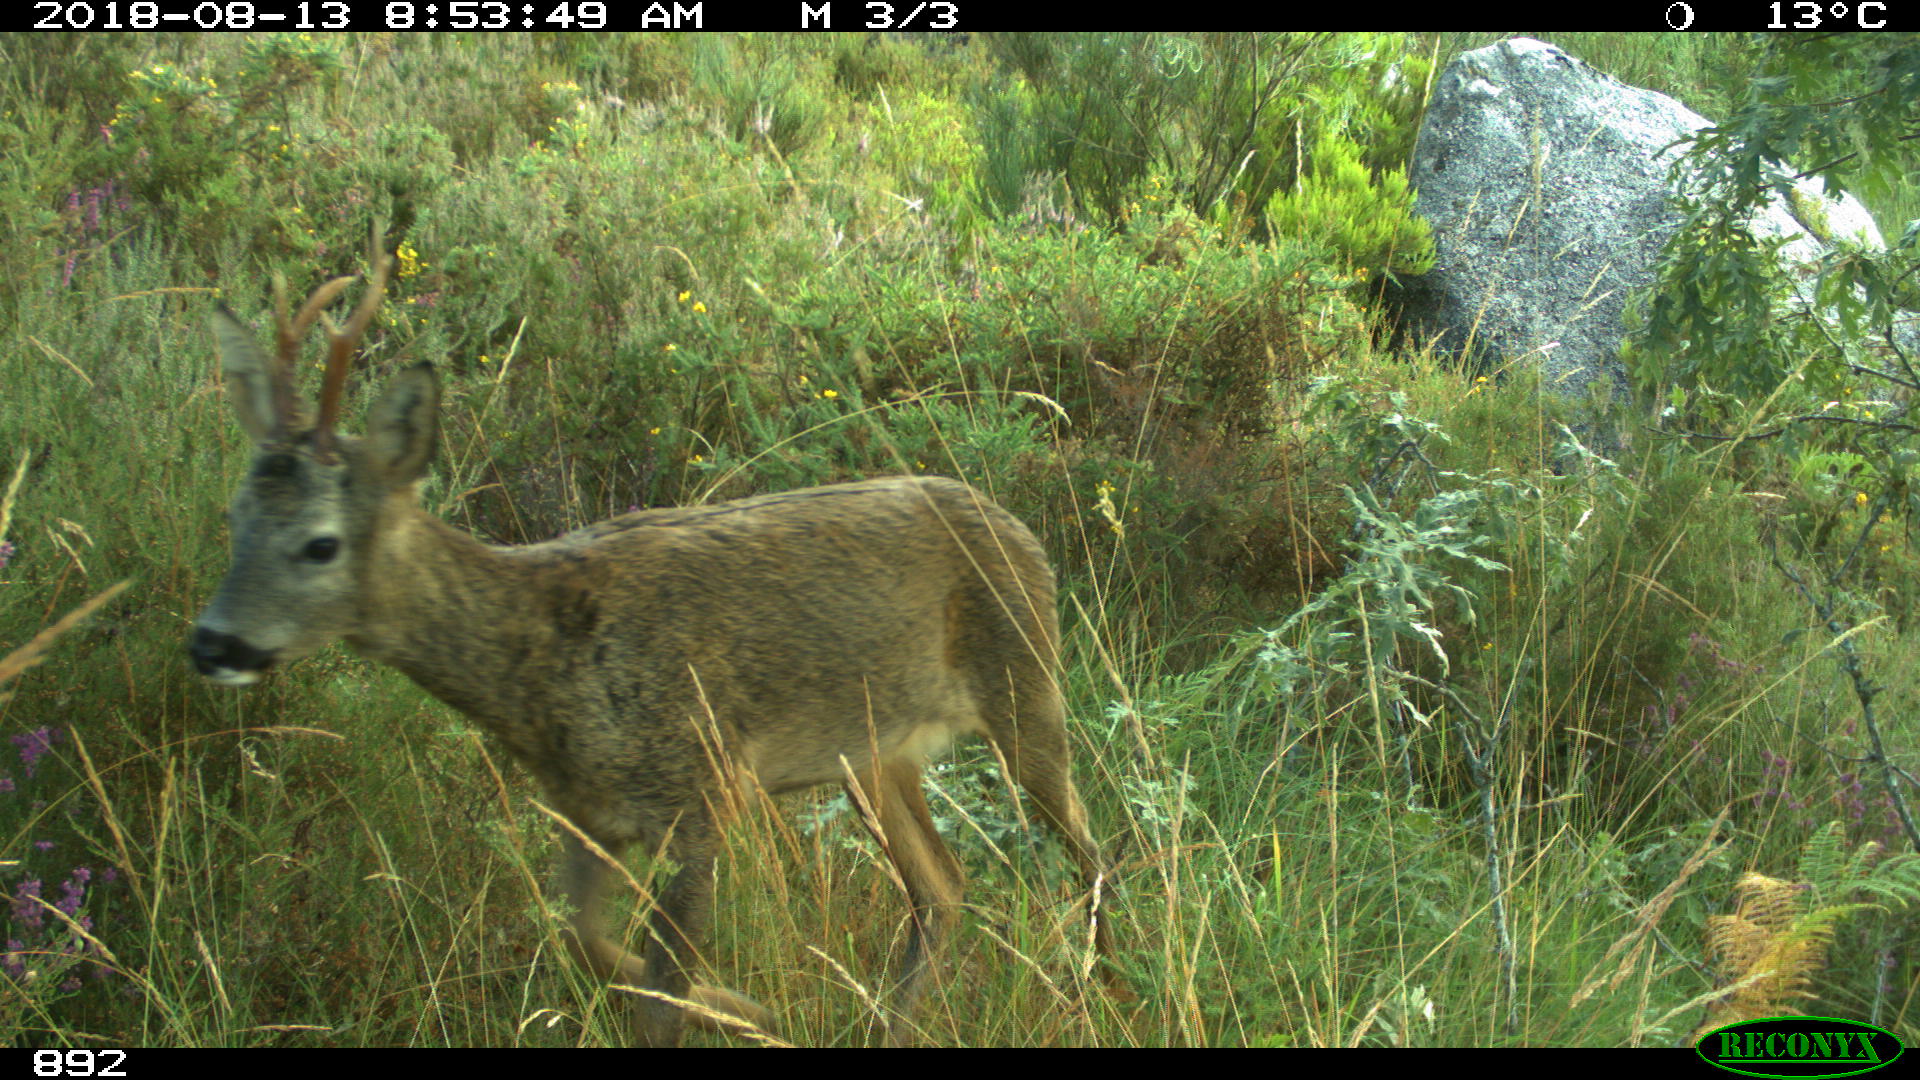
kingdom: Animalia
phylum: Chordata
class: Mammalia
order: Artiodactyla
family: Cervidae
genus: Capreolus
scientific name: Capreolus capreolus
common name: Western roe deer
